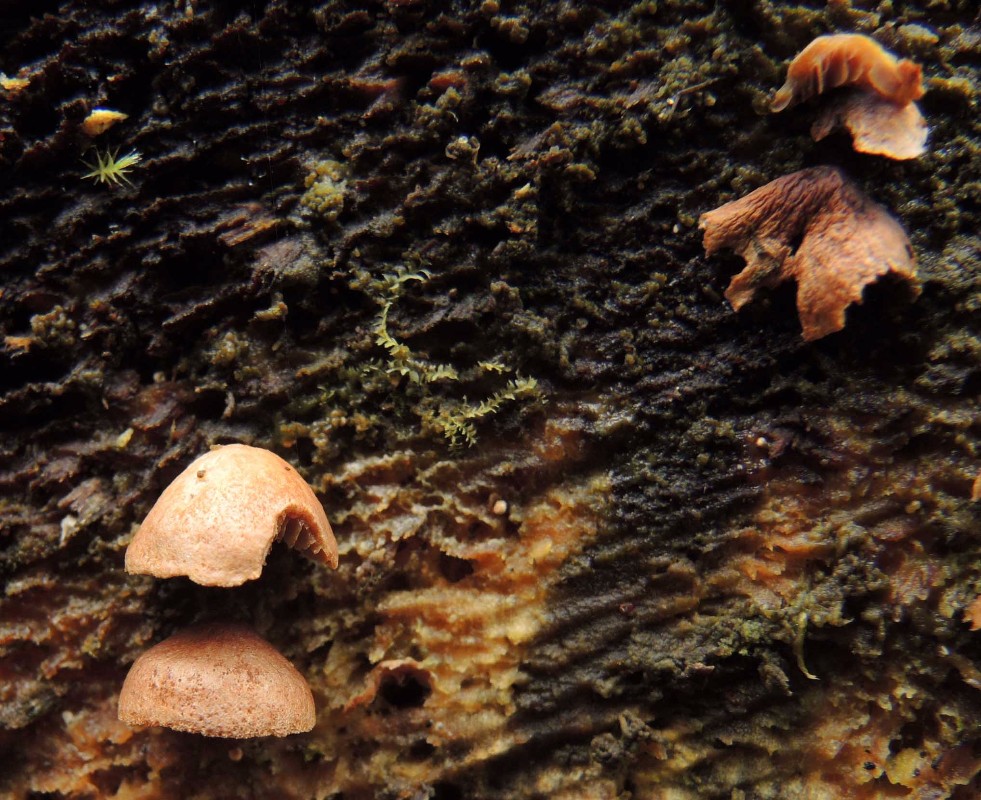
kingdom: Fungi
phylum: Basidiomycota
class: Agaricomycetes
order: Agaricales
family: Strophariaceae
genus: Deconica
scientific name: Deconica horizontalis
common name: ved-stråhat
